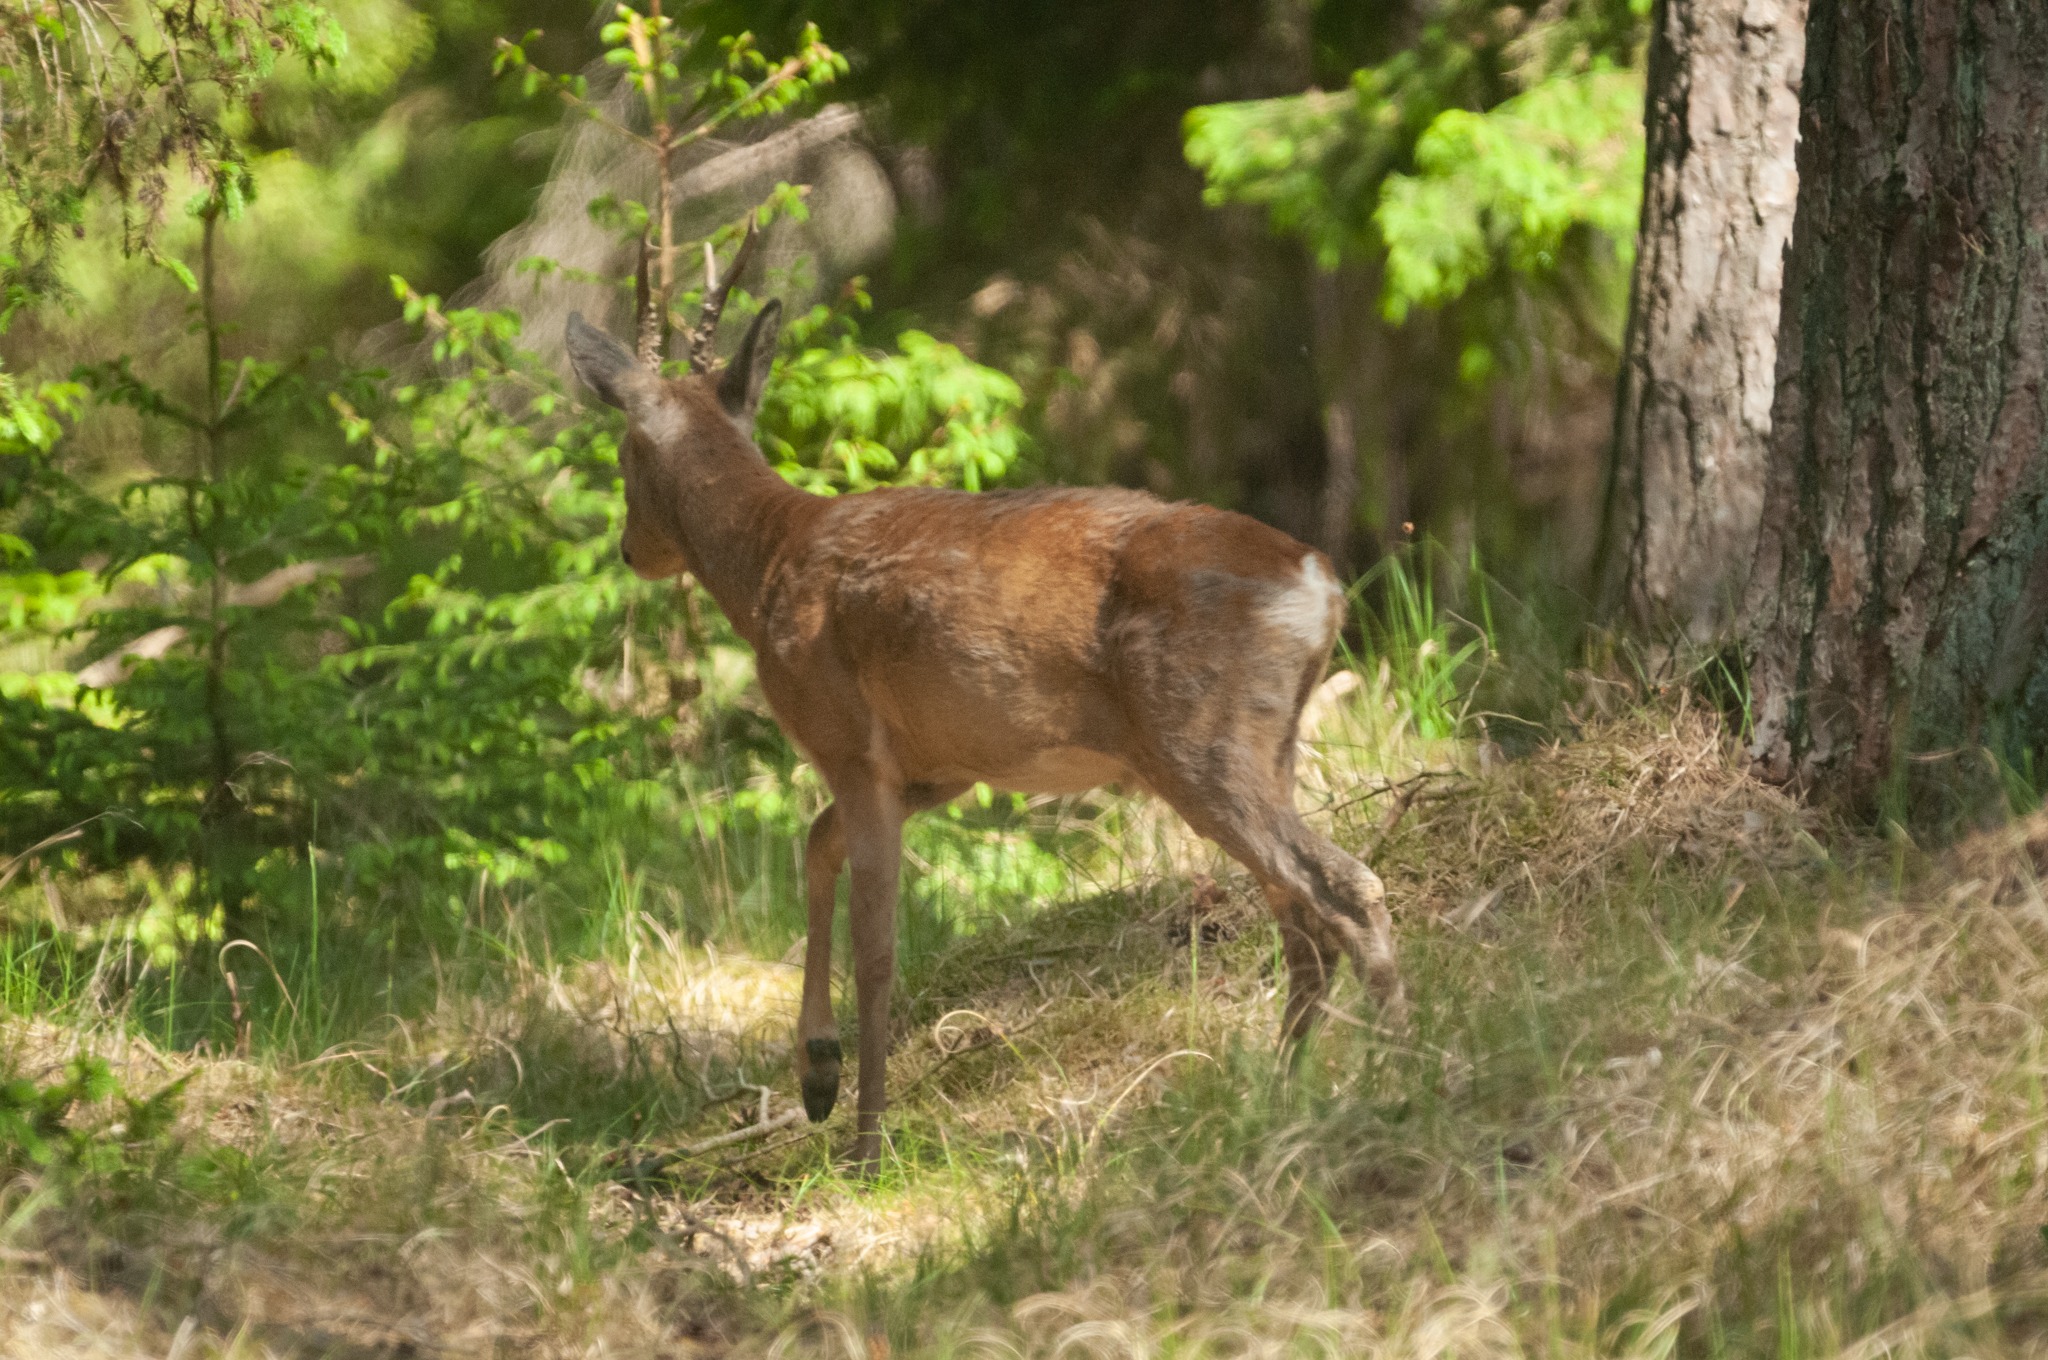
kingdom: Animalia
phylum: Chordata
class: Mammalia
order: Artiodactyla
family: Cervidae
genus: Capreolus
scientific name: Capreolus capreolus
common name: Rådyr
